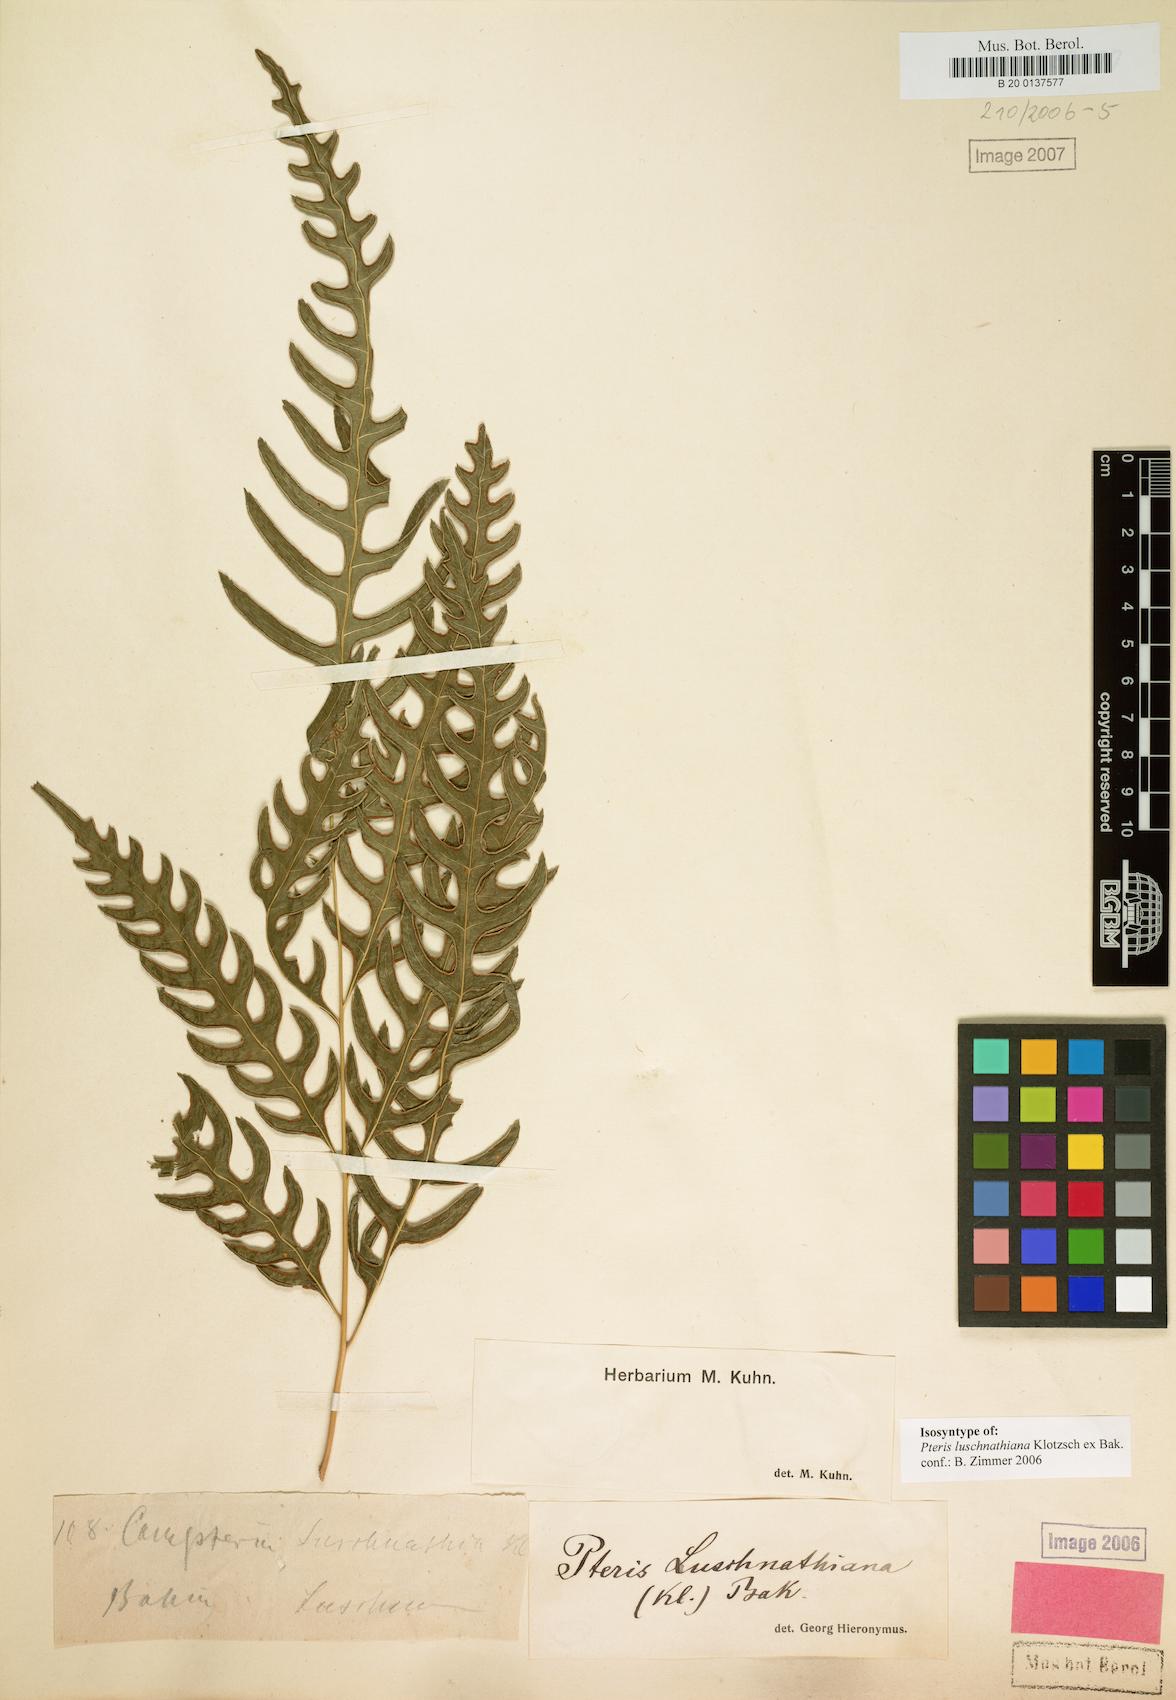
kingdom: Plantae
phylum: Tracheophyta
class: Polypodiopsida
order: Polypodiales
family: Pteridaceae
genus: Pteris
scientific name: Pteris propinqua
